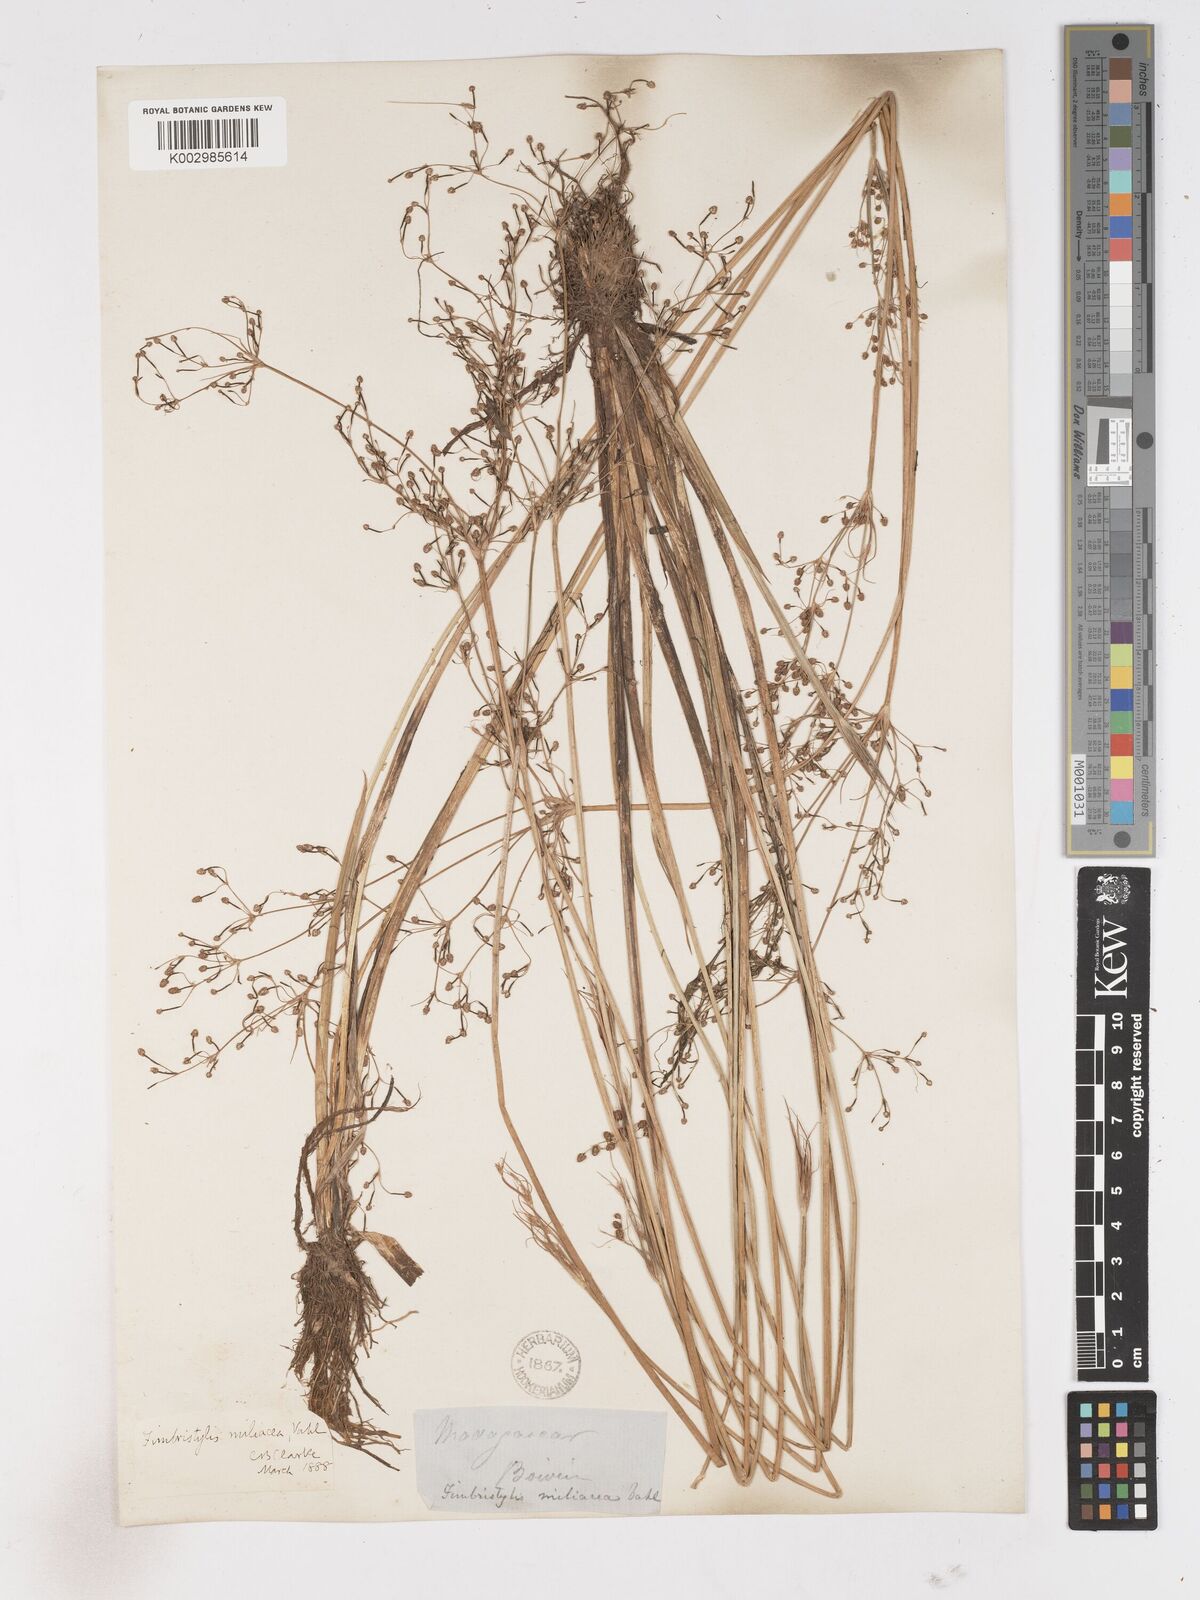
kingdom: Plantae
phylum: Tracheophyta
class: Liliopsida
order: Poales
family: Cyperaceae
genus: Fimbristylis
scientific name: Fimbristylis littoralis
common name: Fimbry
